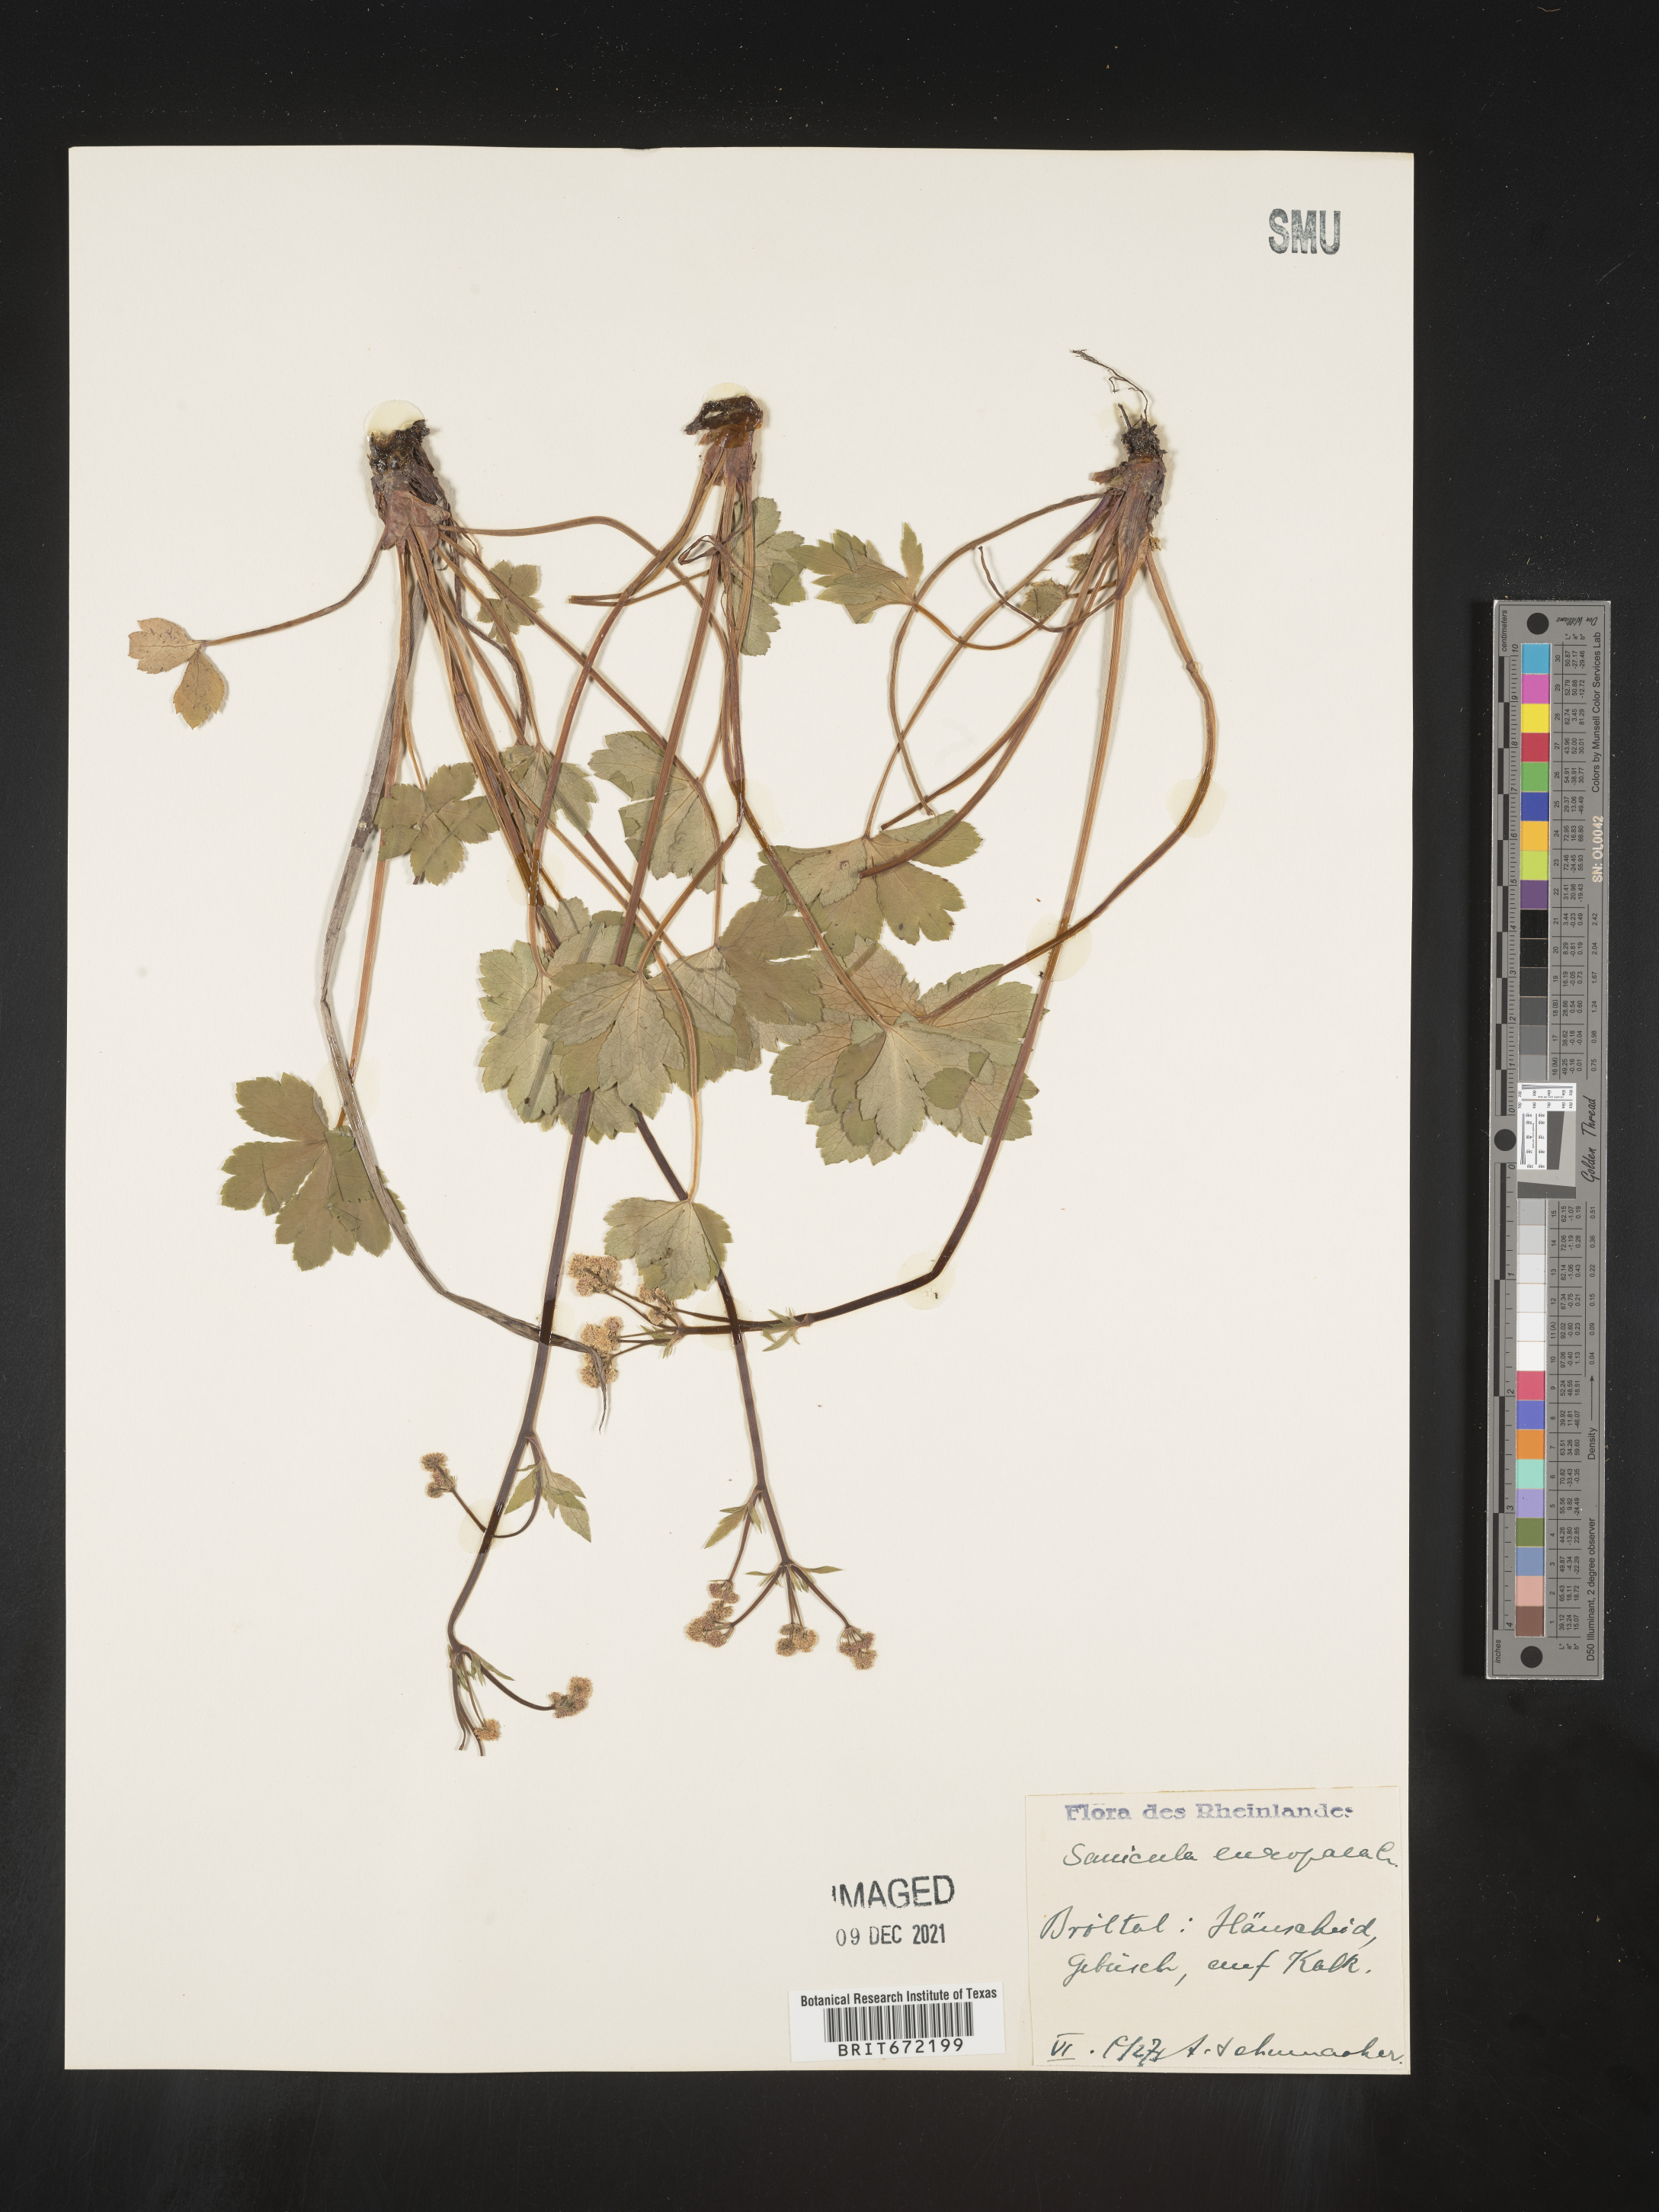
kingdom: Plantae
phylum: Tracheophyta
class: Magnoliopsida
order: Apiales
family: Apiaceae
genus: Sanicula
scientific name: Sanicula
